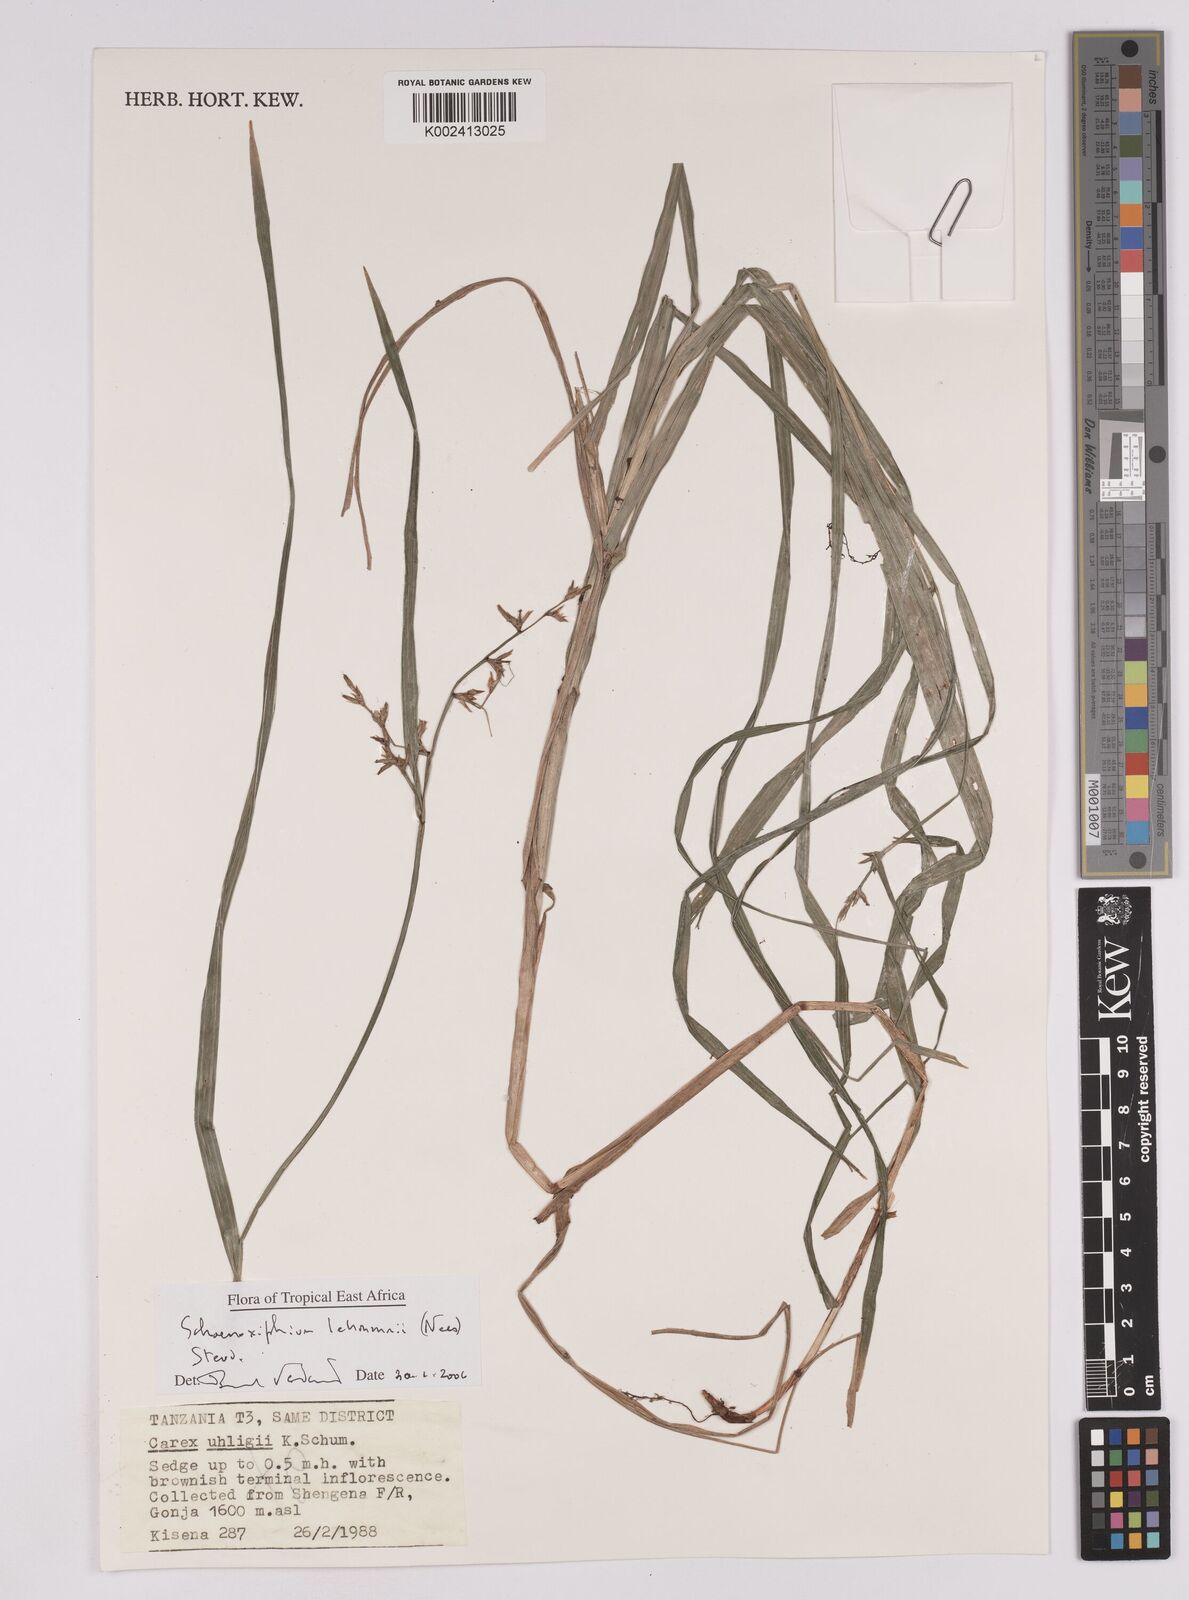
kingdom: Plantae
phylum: Tracheophyta
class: Liliopsida
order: Poales
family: Cyperaceae
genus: Carex
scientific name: Carex uhligii
